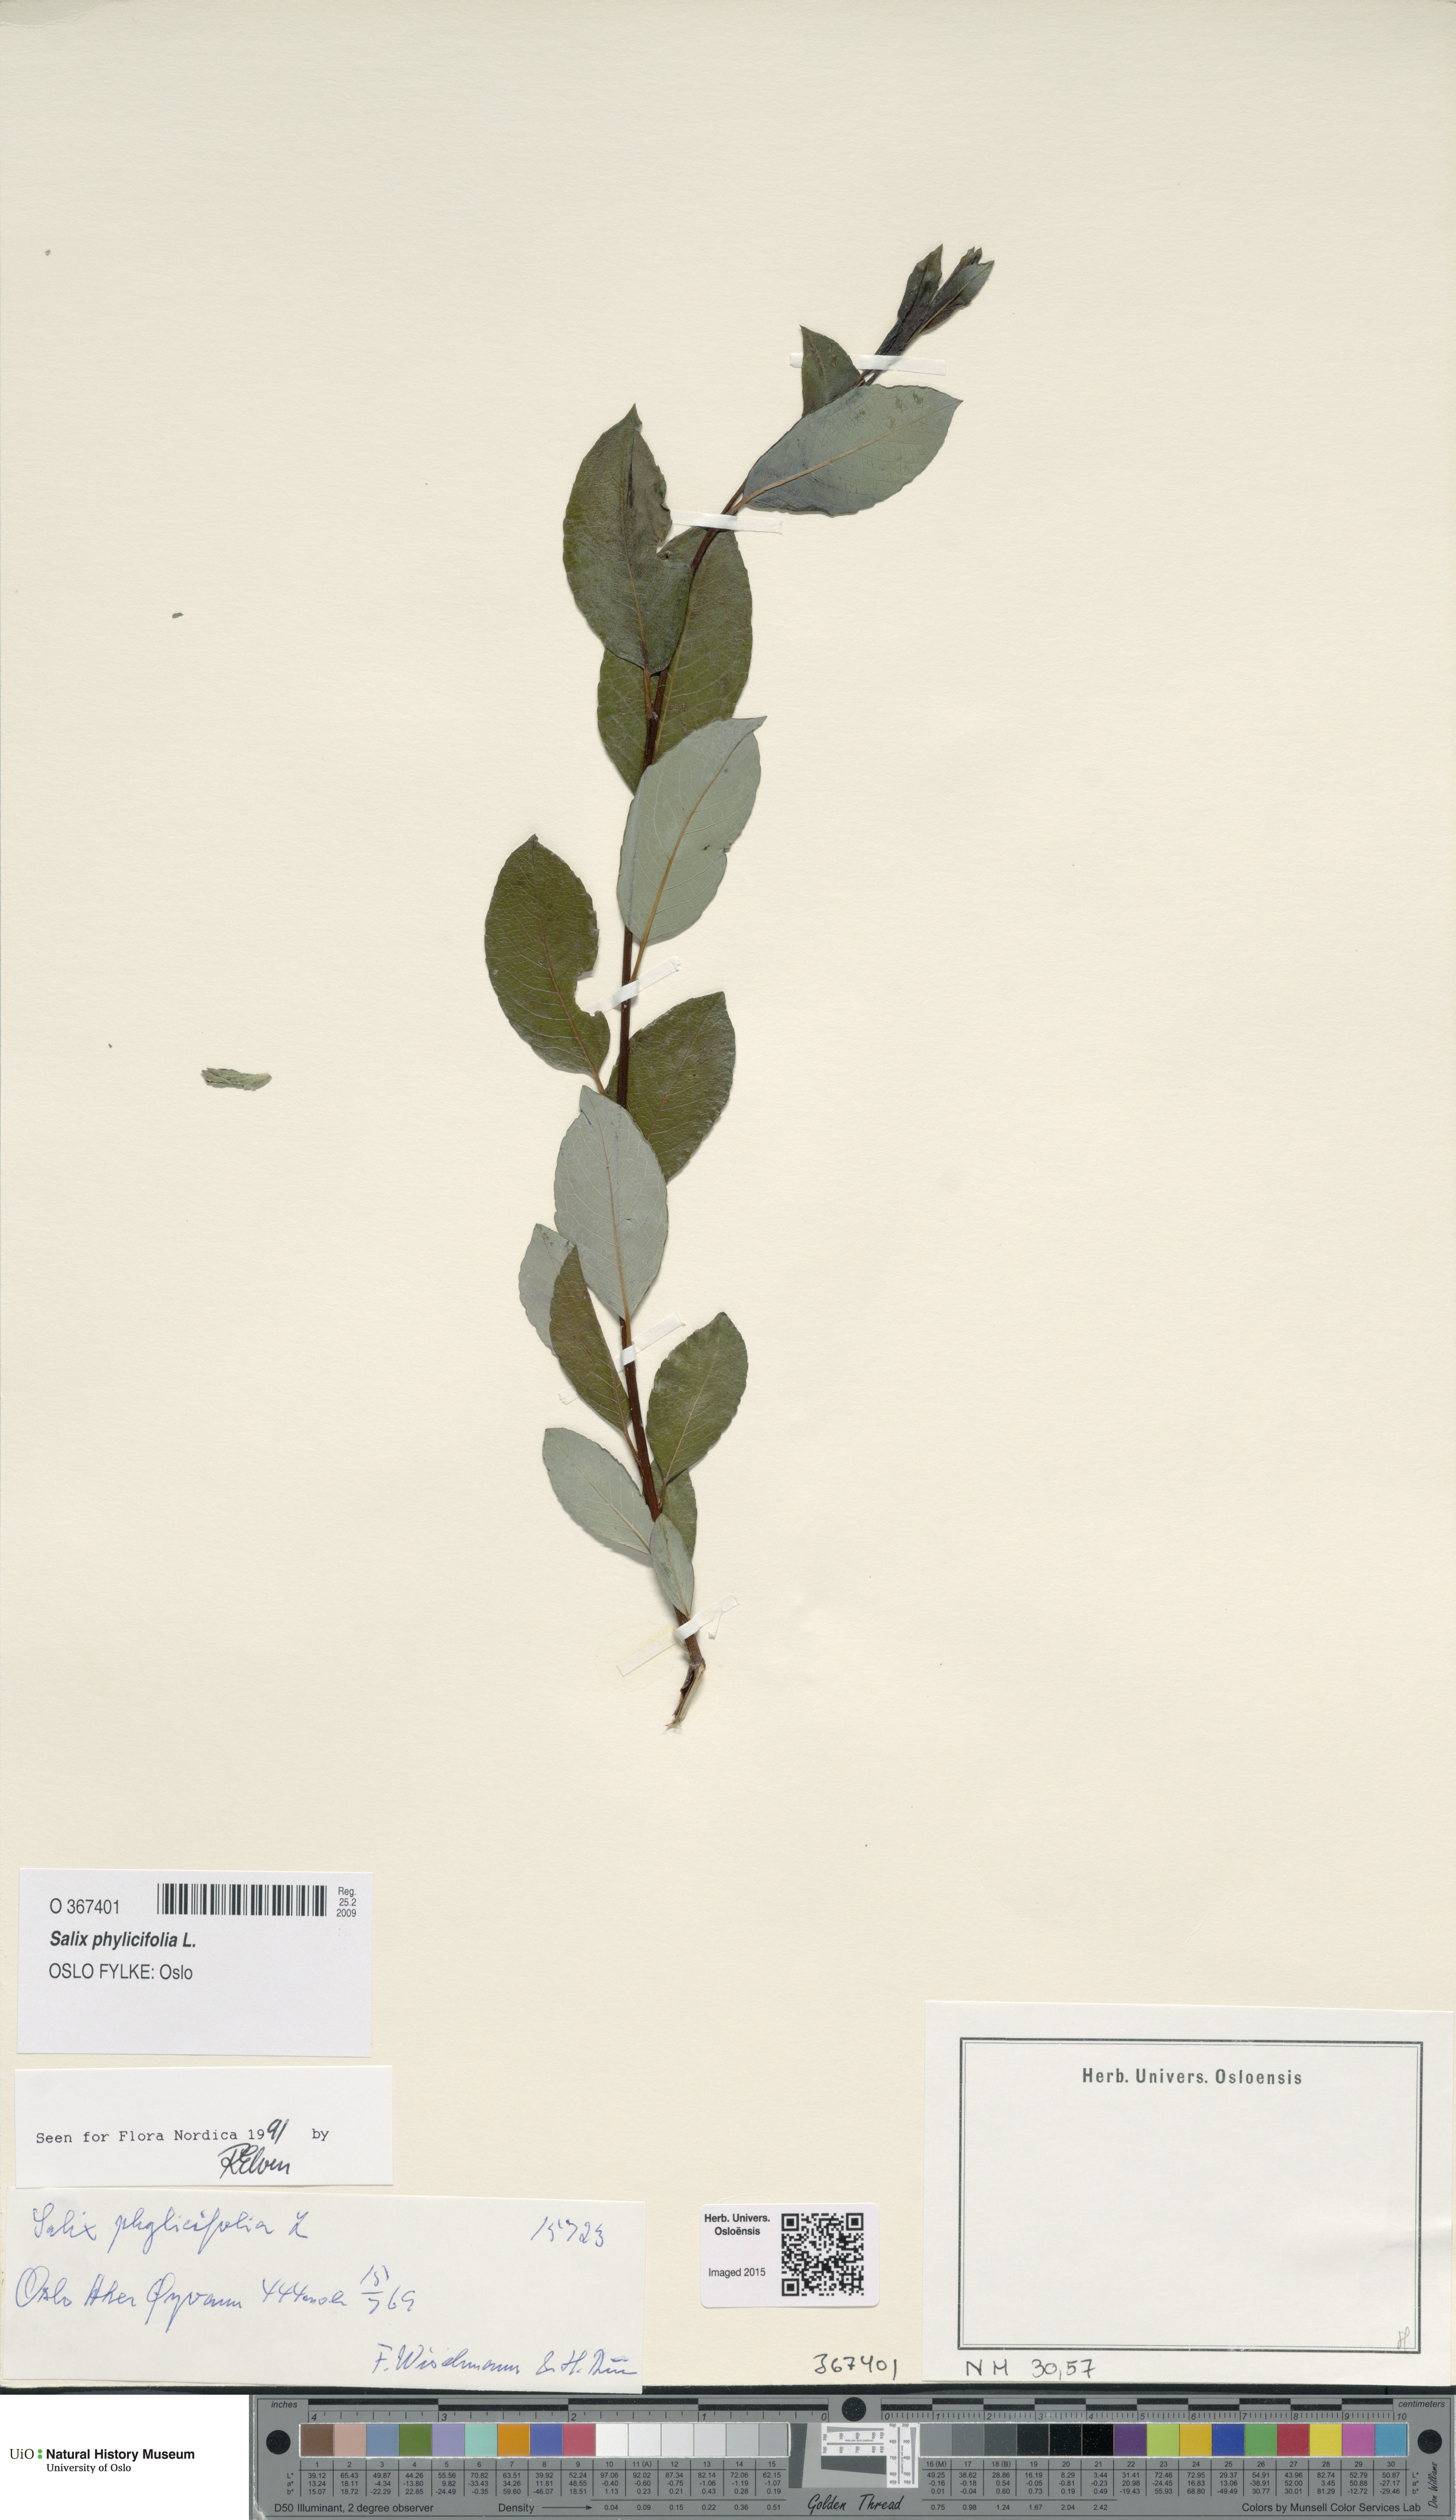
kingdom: Plantae
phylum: Tracheophyta
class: Magnoliopsida
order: Malpighiales
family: Salicaceae
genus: Salix
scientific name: Salix phylicifolia
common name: Tea-leaved willow
